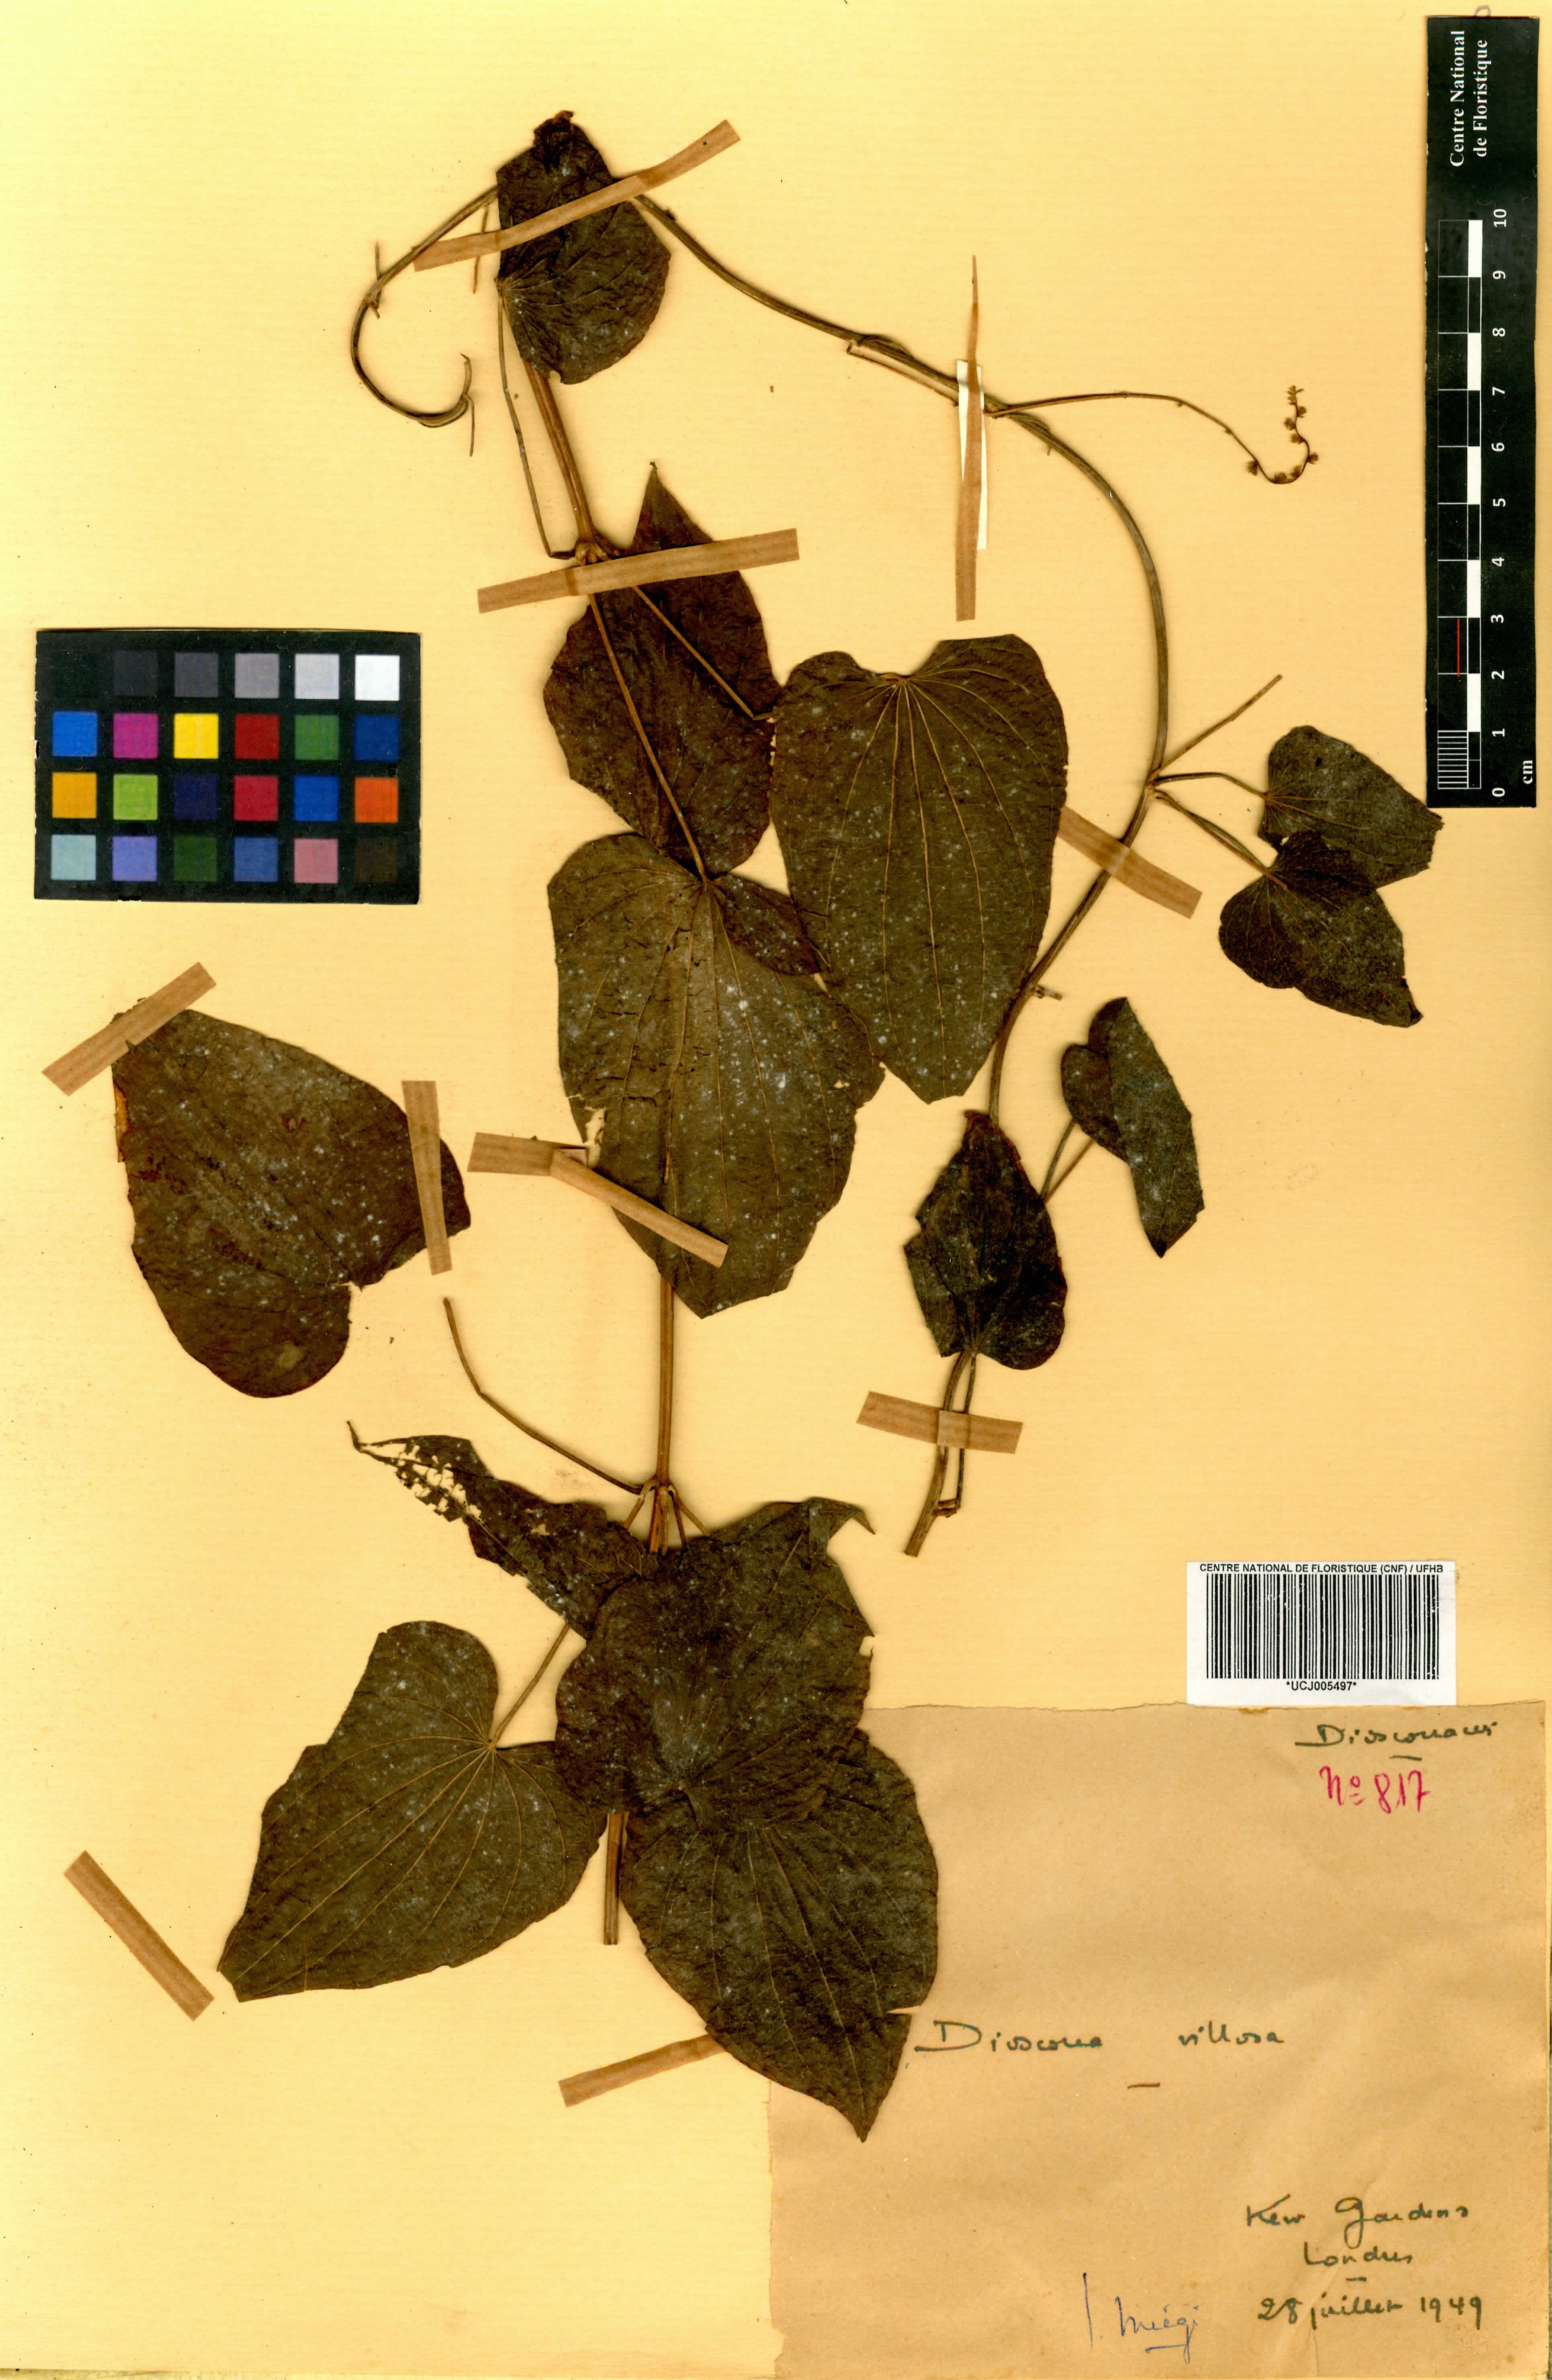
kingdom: Plantae
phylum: Tracheophyta
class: Liliopsida
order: Dioscoreales
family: Dioscoreaceae
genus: Dioscorea
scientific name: Dioscorea villosa
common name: Wild yam
